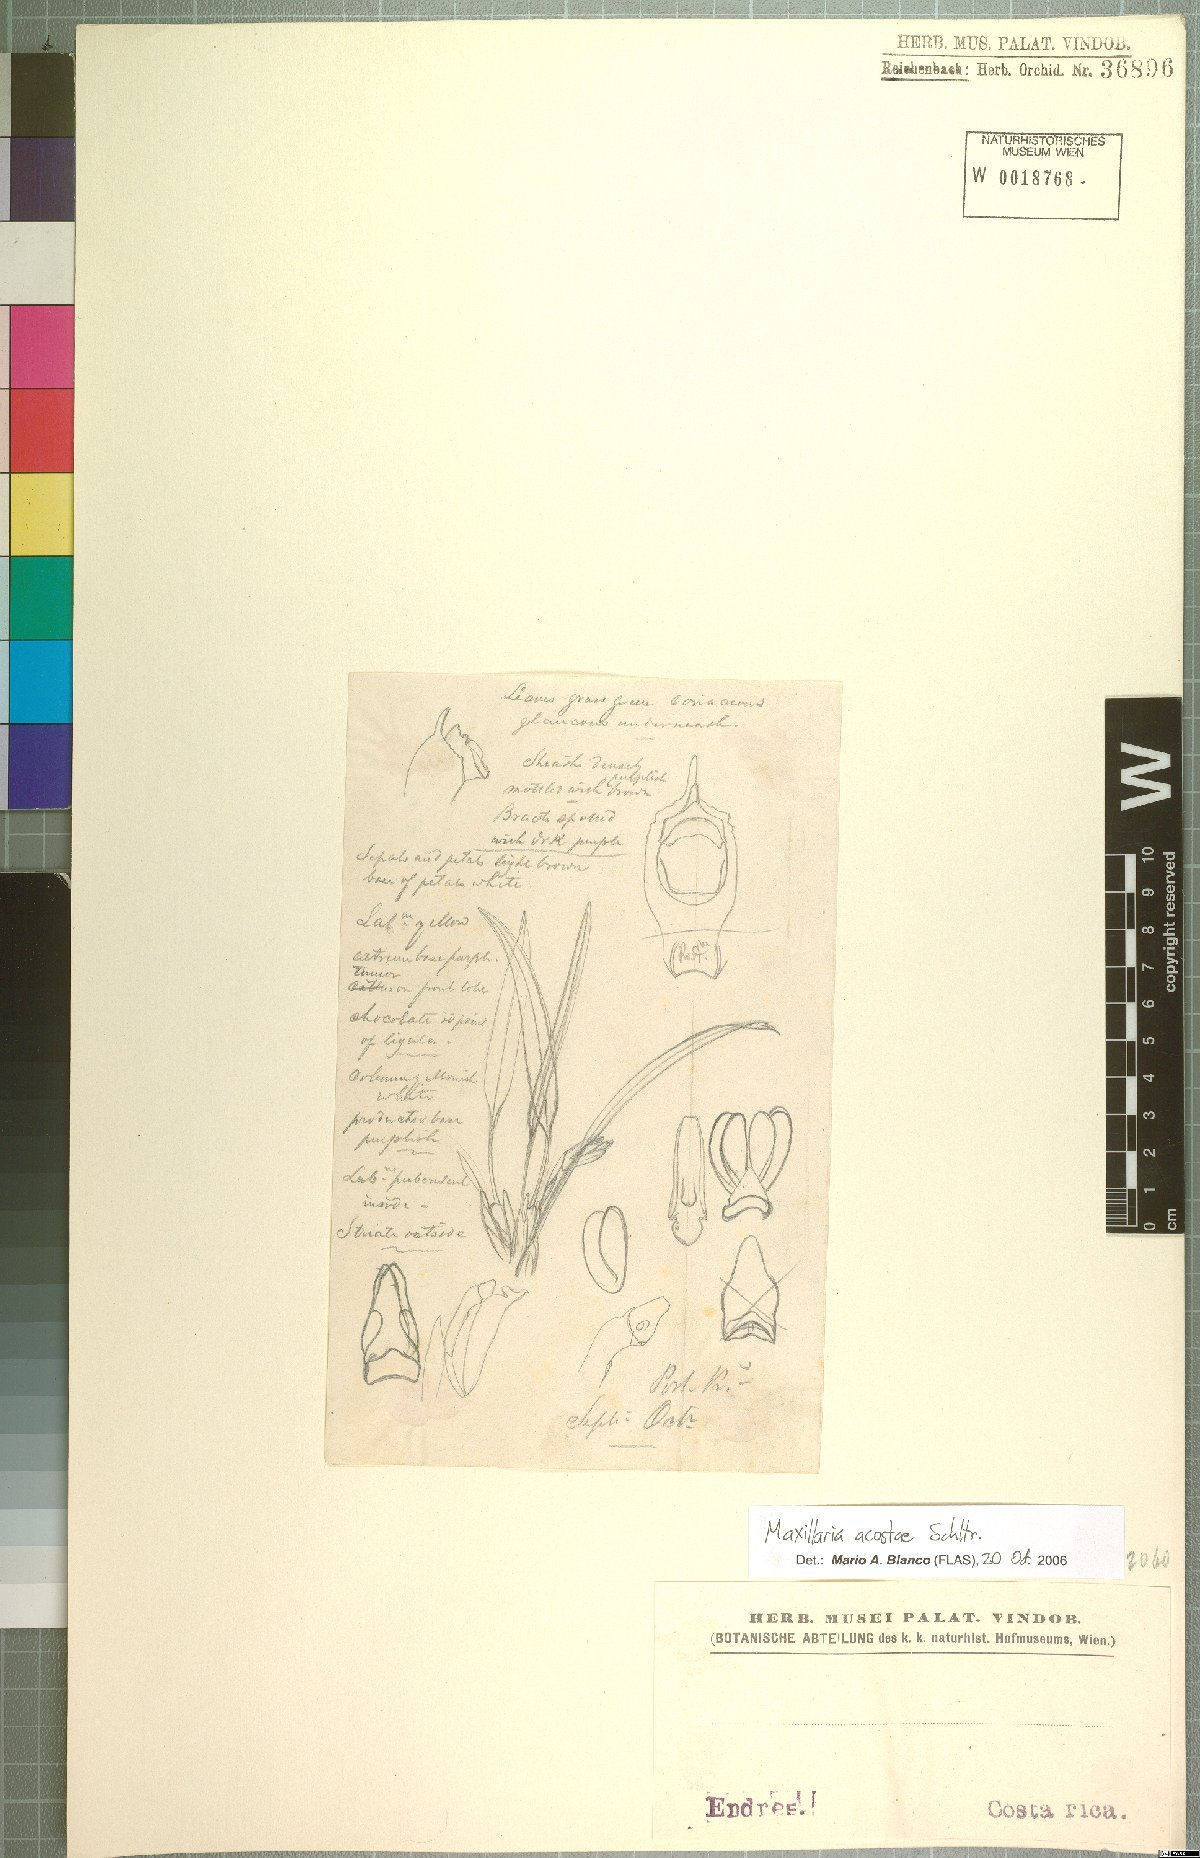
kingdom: Plantae
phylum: Tracheophyta
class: Liliopsida
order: Asparagales
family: Orchidaceae
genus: Maxillaria
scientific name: Maxillaria acostae
